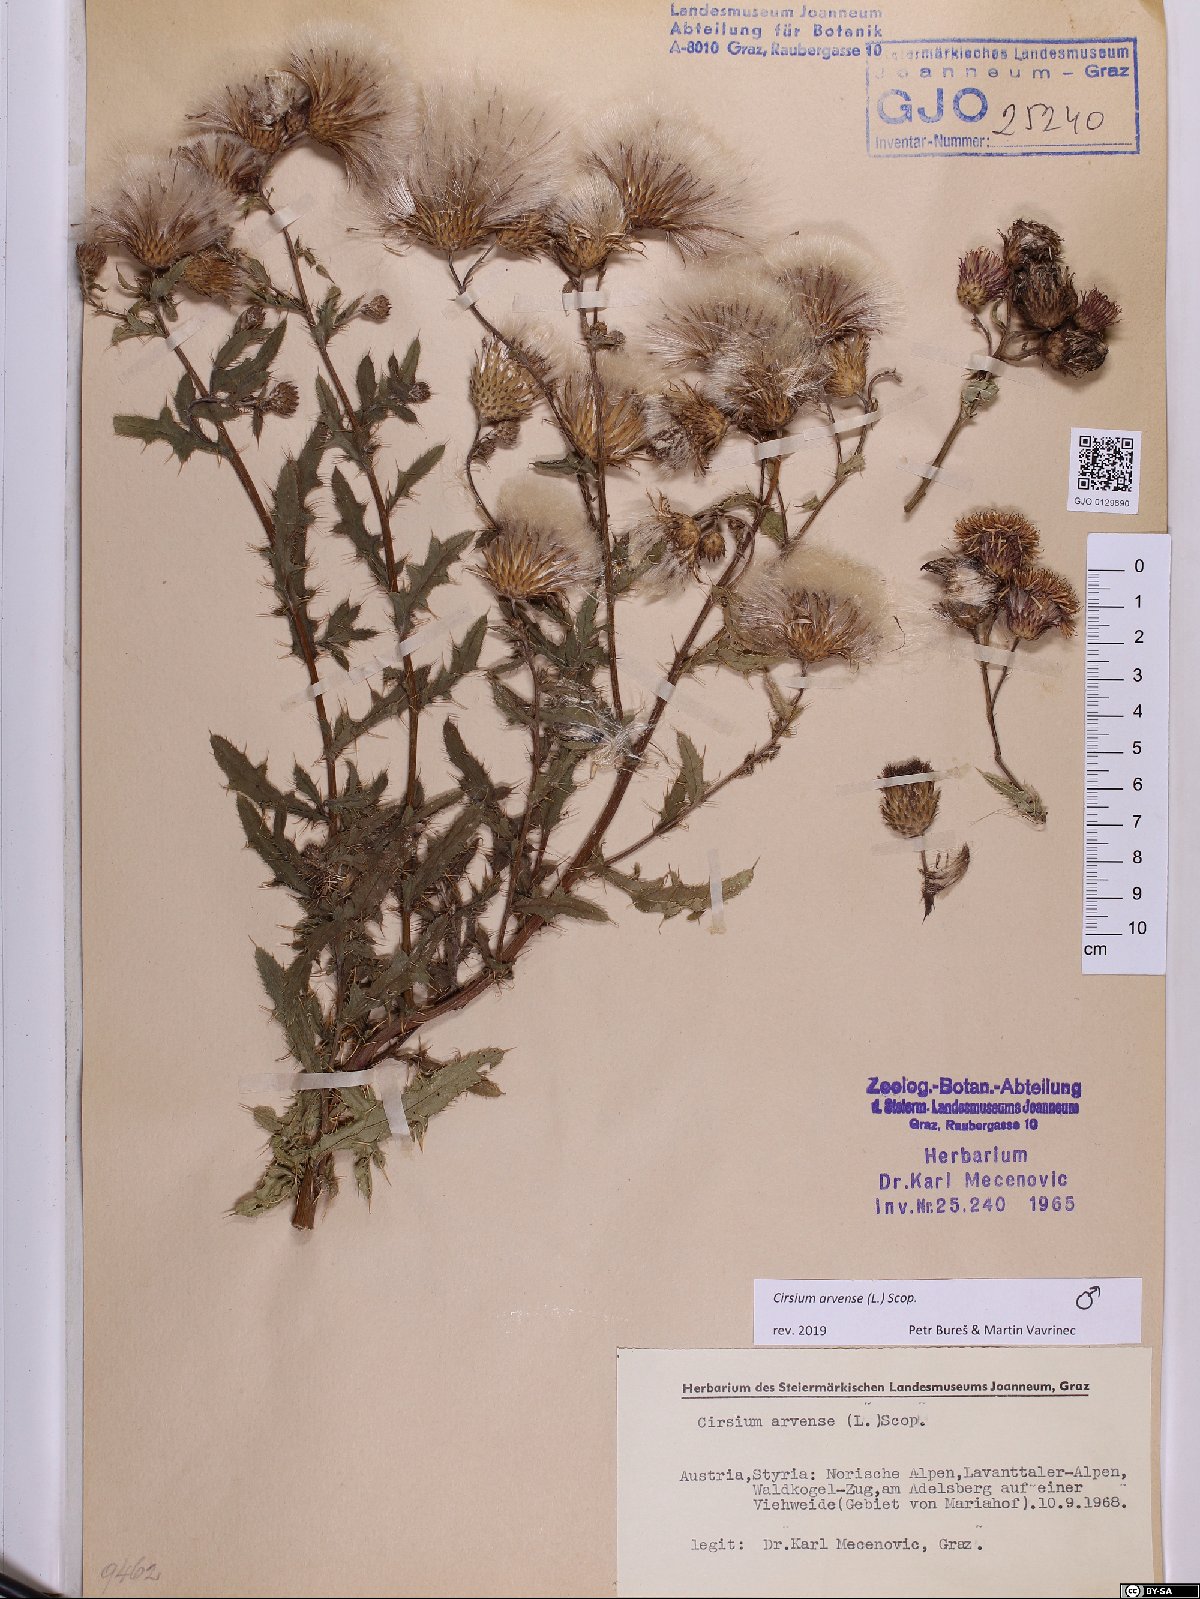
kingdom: Plantae
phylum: Tracheophyta
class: Magnoliopsida
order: Asterales
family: Asteraceae
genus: Cirsium
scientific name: Cirsium arvense
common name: Creeping thistle
